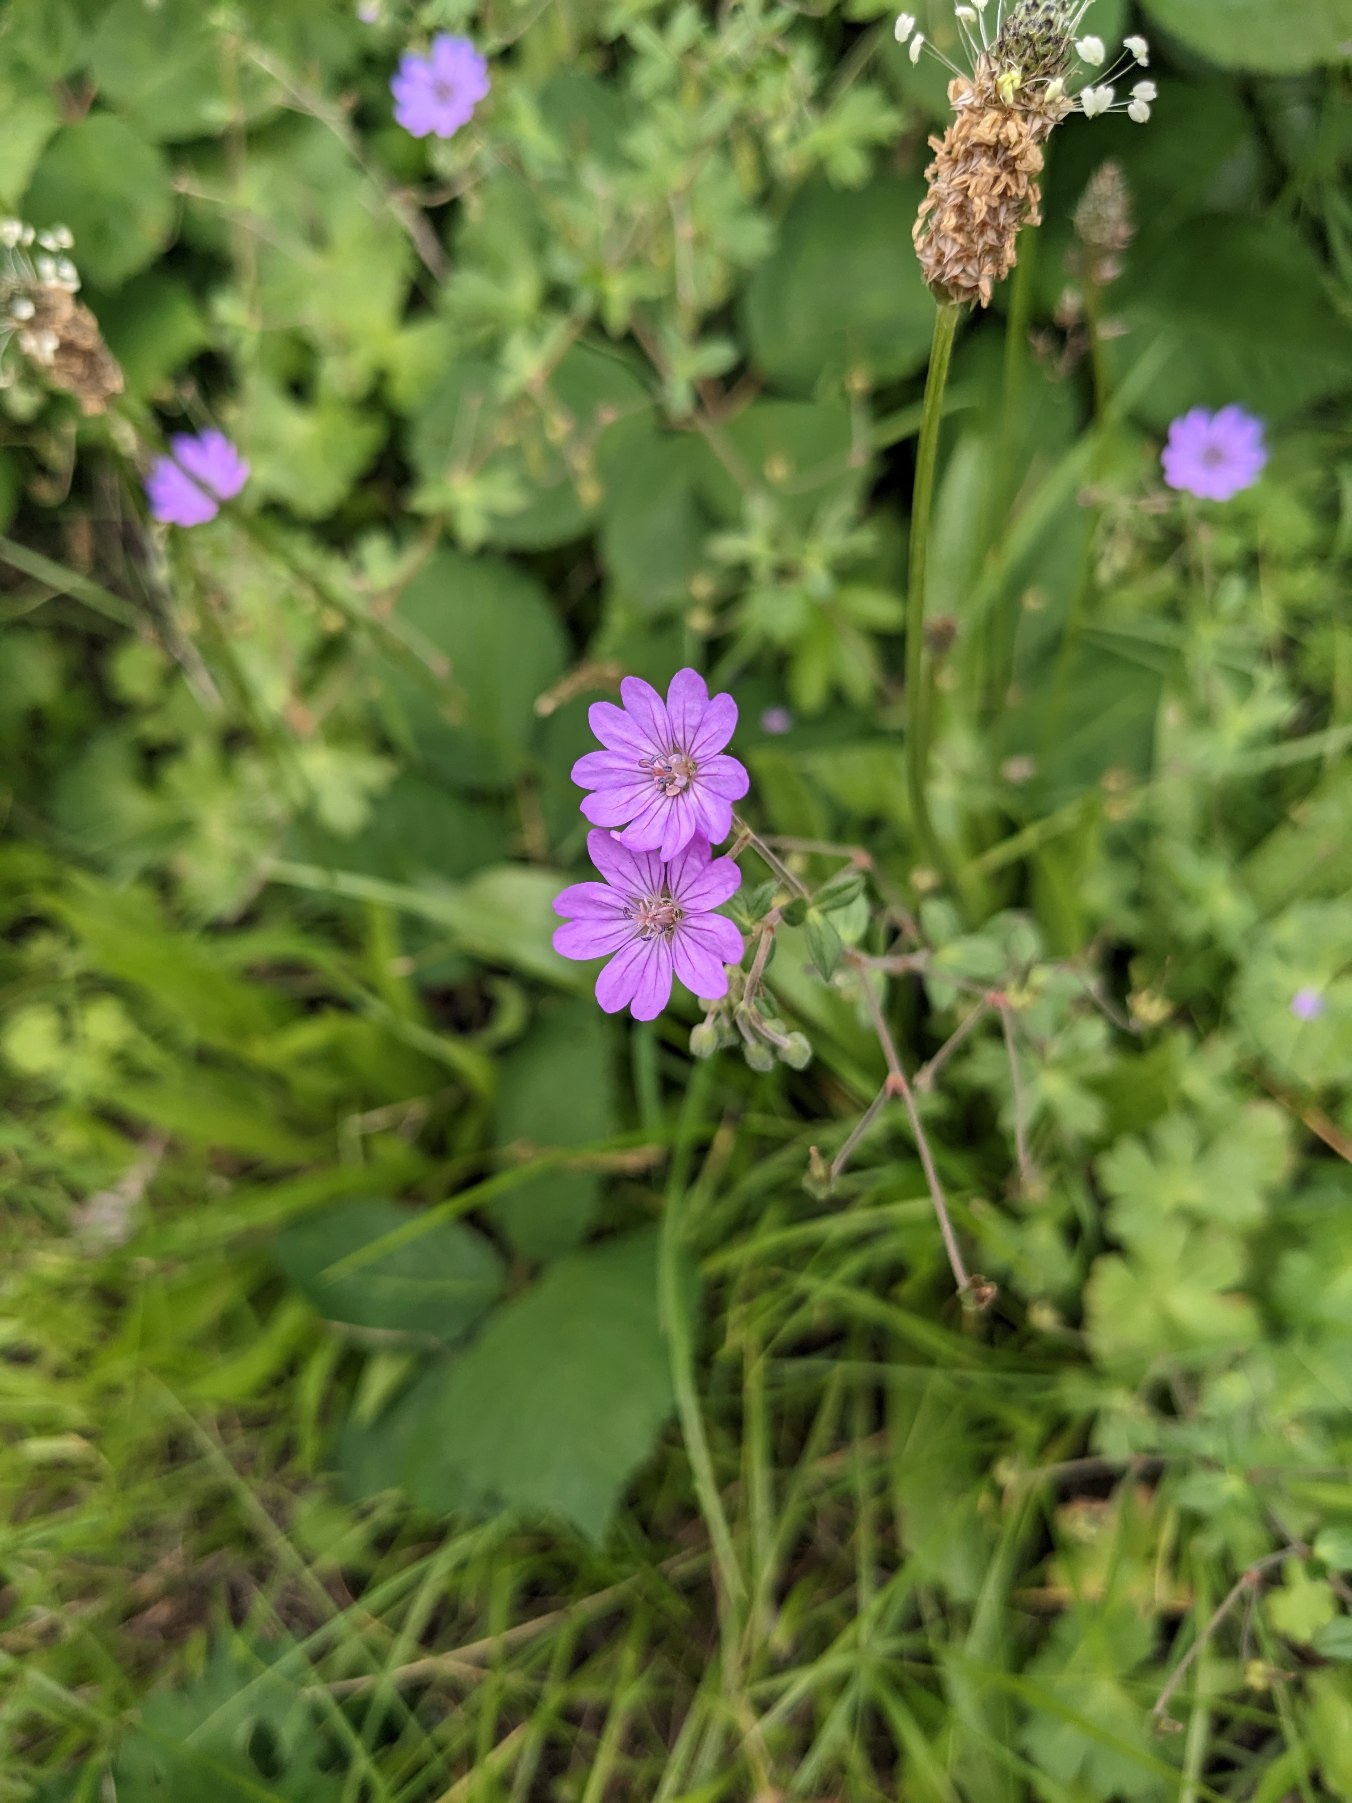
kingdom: Plantae
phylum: Tracheophyta
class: Magnoliopsida
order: Geraniales
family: Geraniaceae
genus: Geranium
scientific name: Geranium pyrenaicum
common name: Pyrenæisk storkenæb
